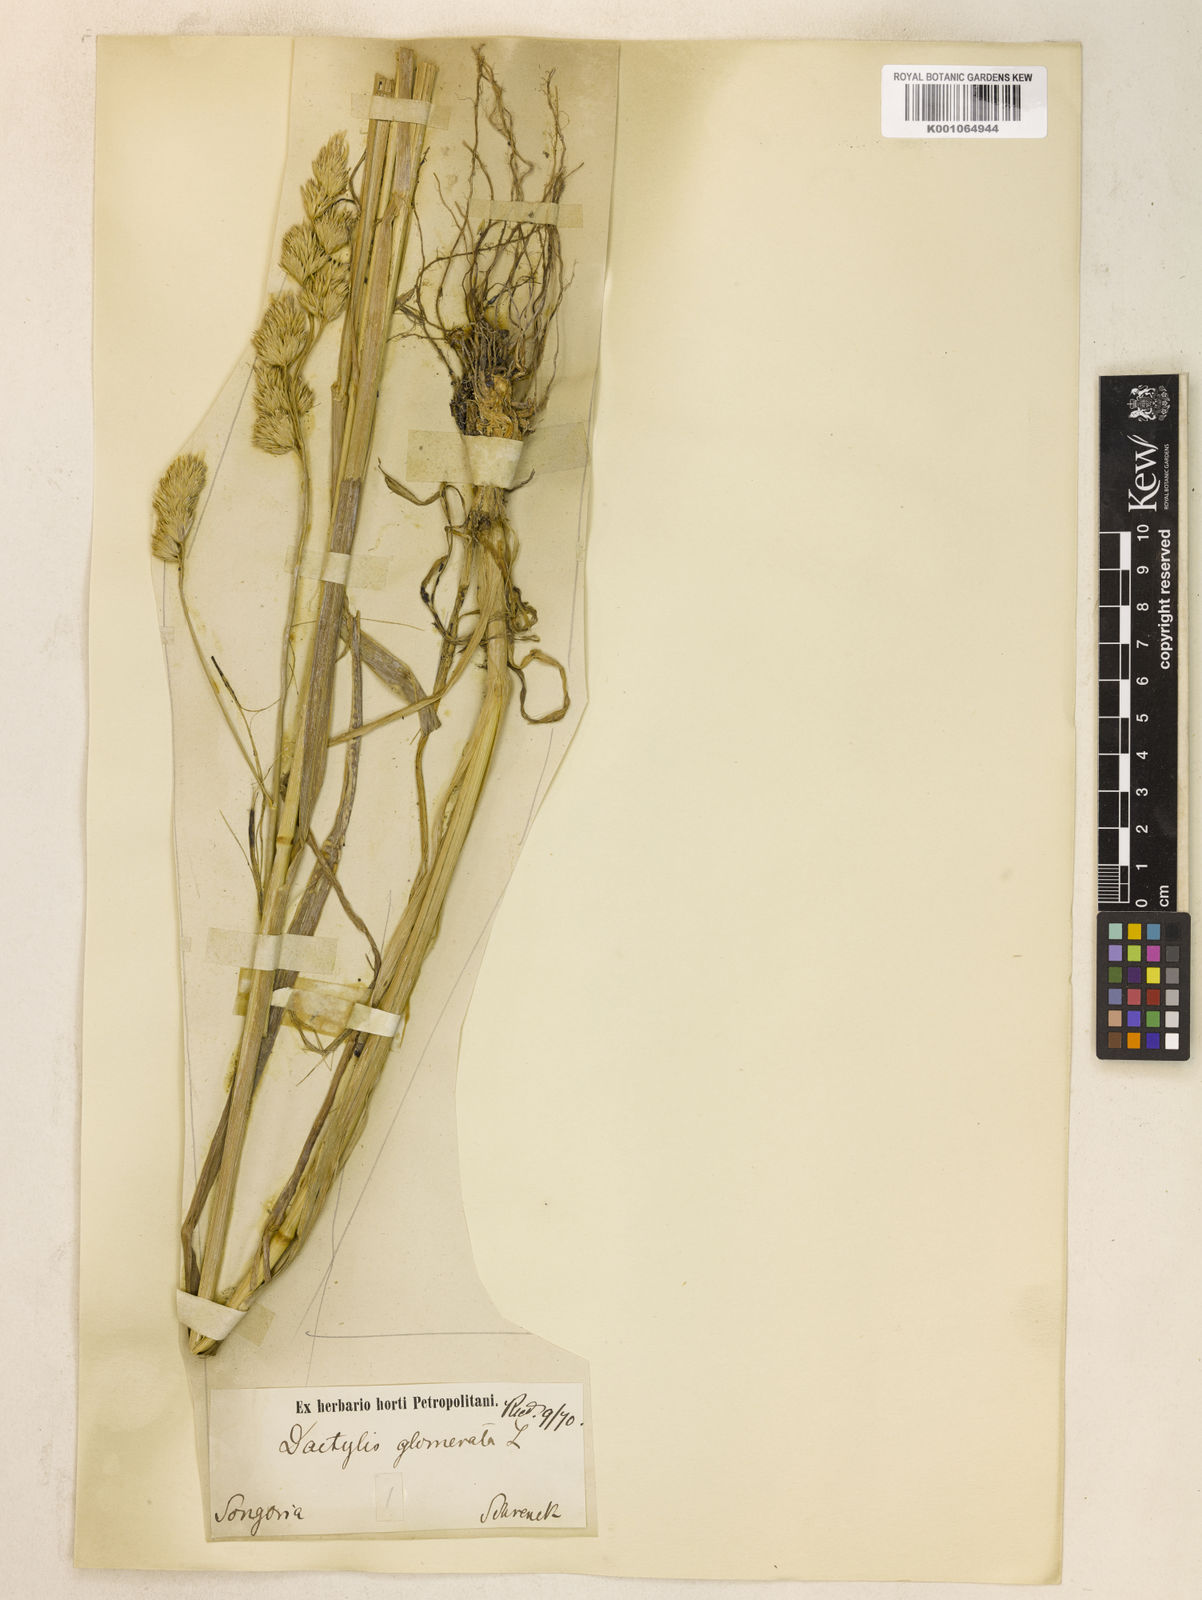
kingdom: Plantae
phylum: Tracheophyta
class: Liliopsida
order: Poales
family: Poaceae
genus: Dactylis
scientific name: Dactylis glomerata
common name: Orchardgrass
